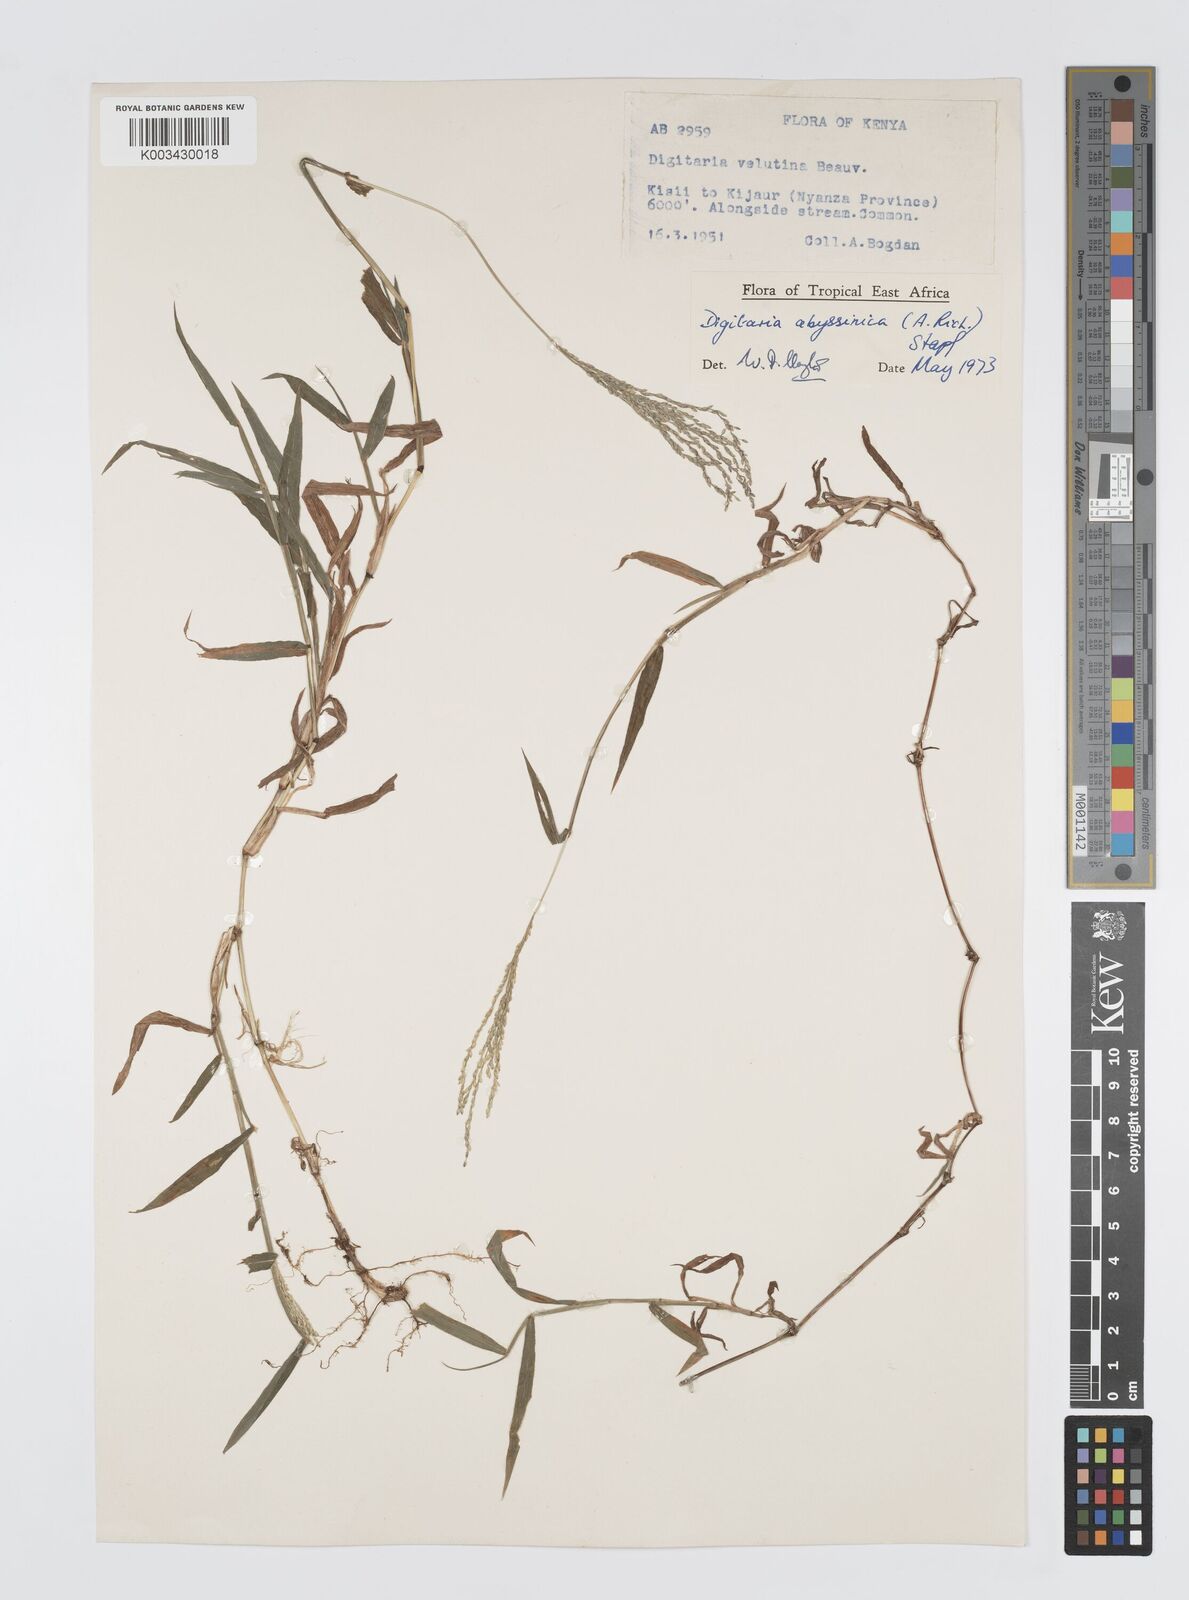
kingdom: Plantae
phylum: Tracheophyta
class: Liliopsida
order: Poales
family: Poaceae
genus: Digitaria
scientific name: Digitaria abyssinica
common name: African couchgrass
